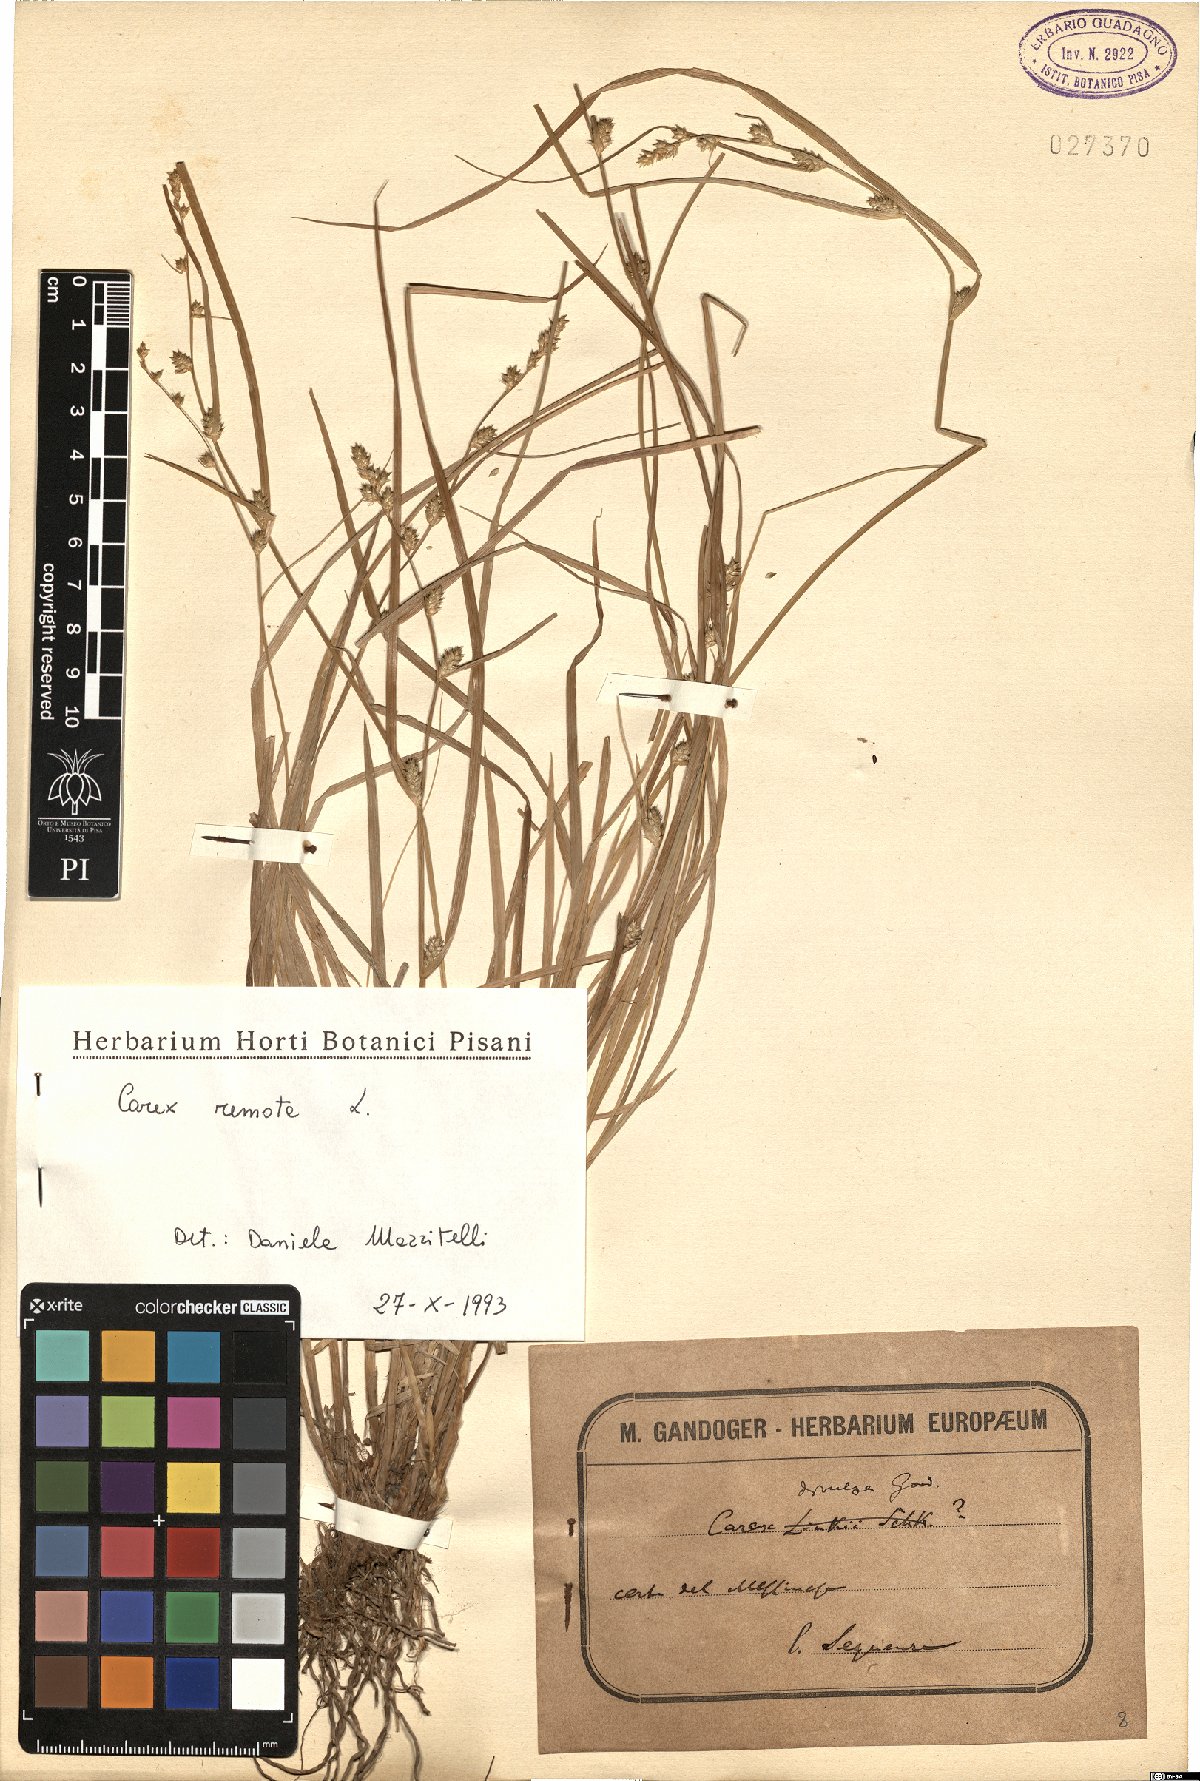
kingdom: Plantae
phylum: Tracheophyta
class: Liliopsida
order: Poales
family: Cyperaceae
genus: Carex
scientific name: Carex remota
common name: Remote sedge
